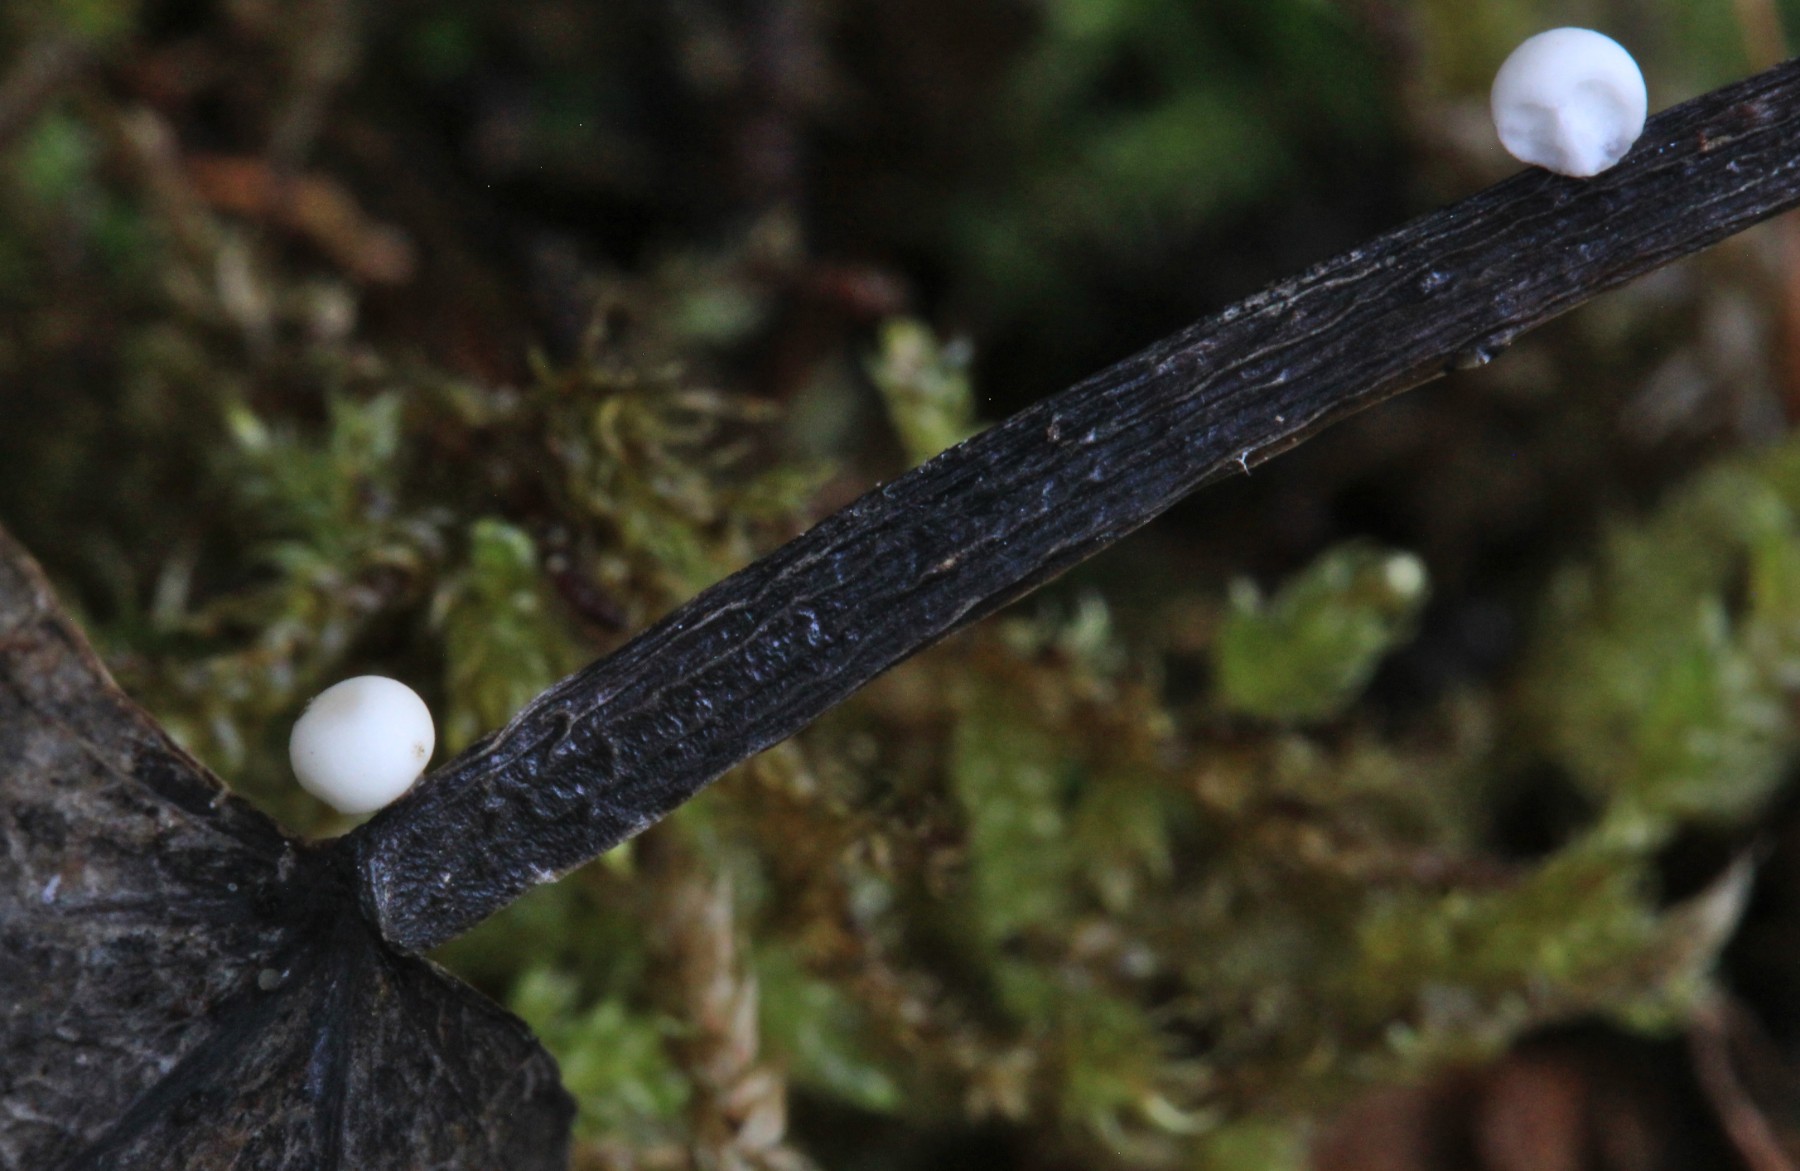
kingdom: Fungi
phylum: Basidiomycota
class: Agaricomycetes
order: Agaricales
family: Typhulaceae
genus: Sclerotium
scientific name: Sclerotium
